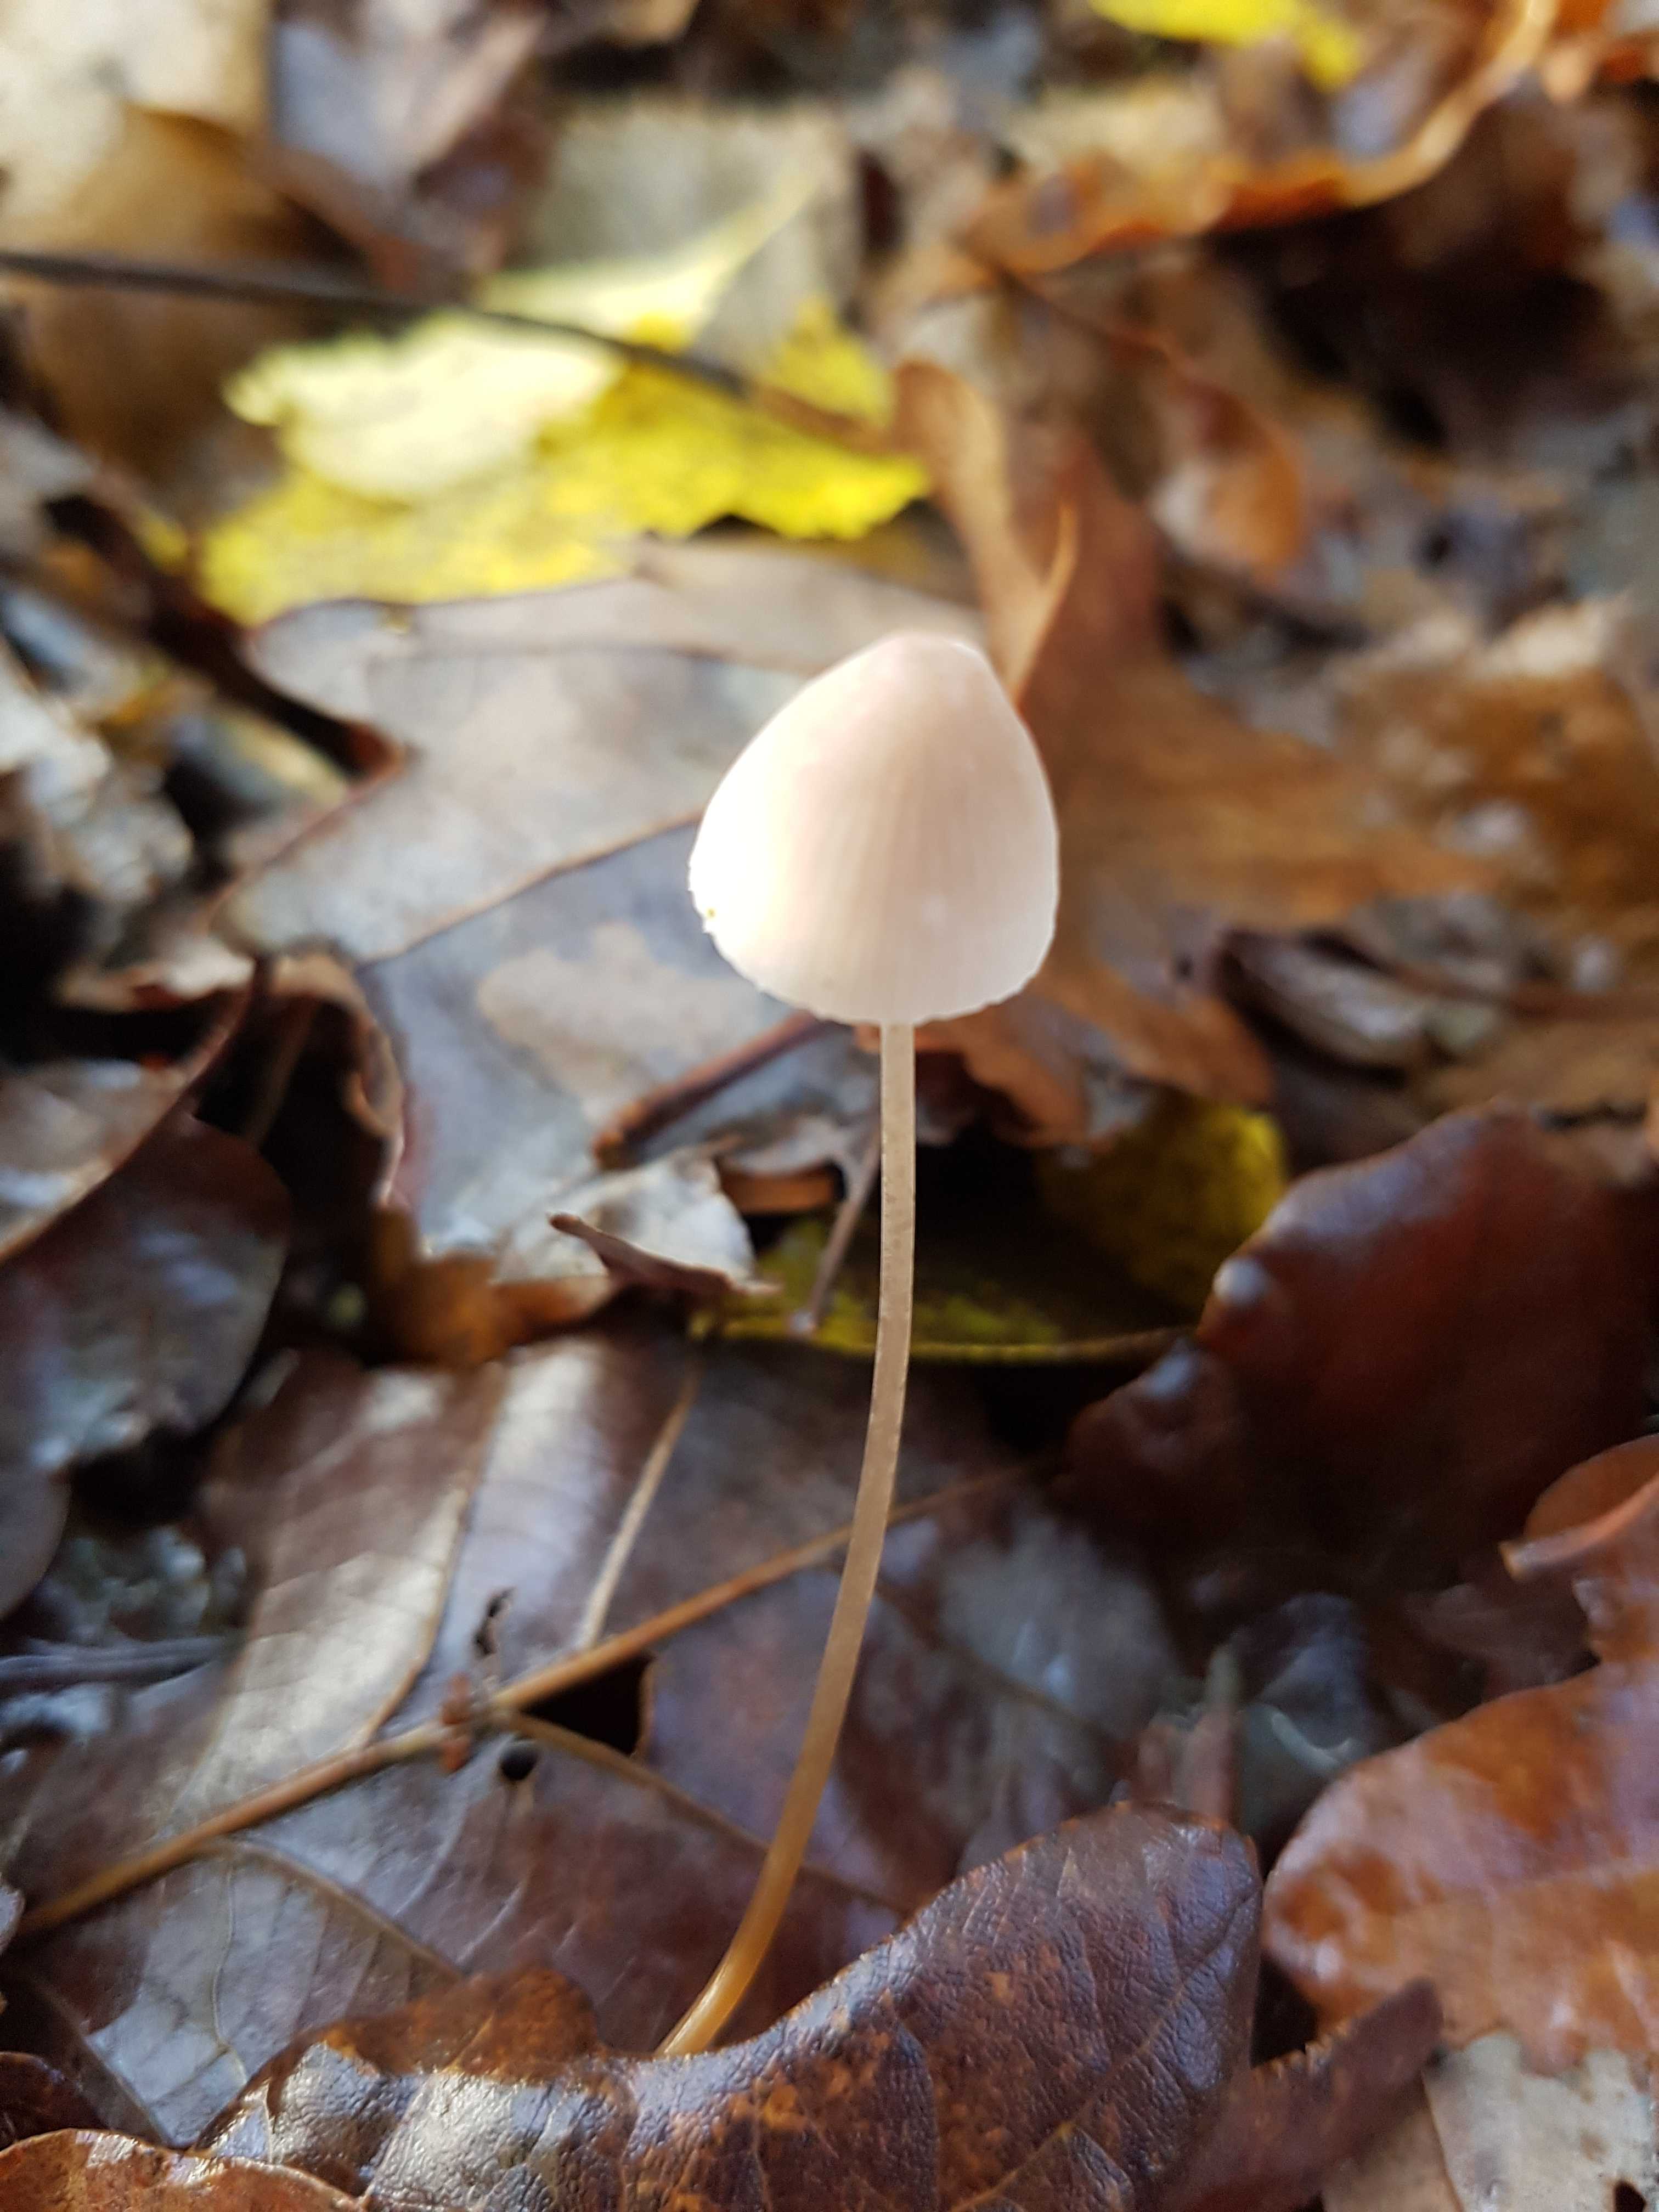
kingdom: Fungi
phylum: Basidiomycota
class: Agaricomycetes
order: Agaricales
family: Mycenaceae
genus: Mycena
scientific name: Mycena
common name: huesvamp
